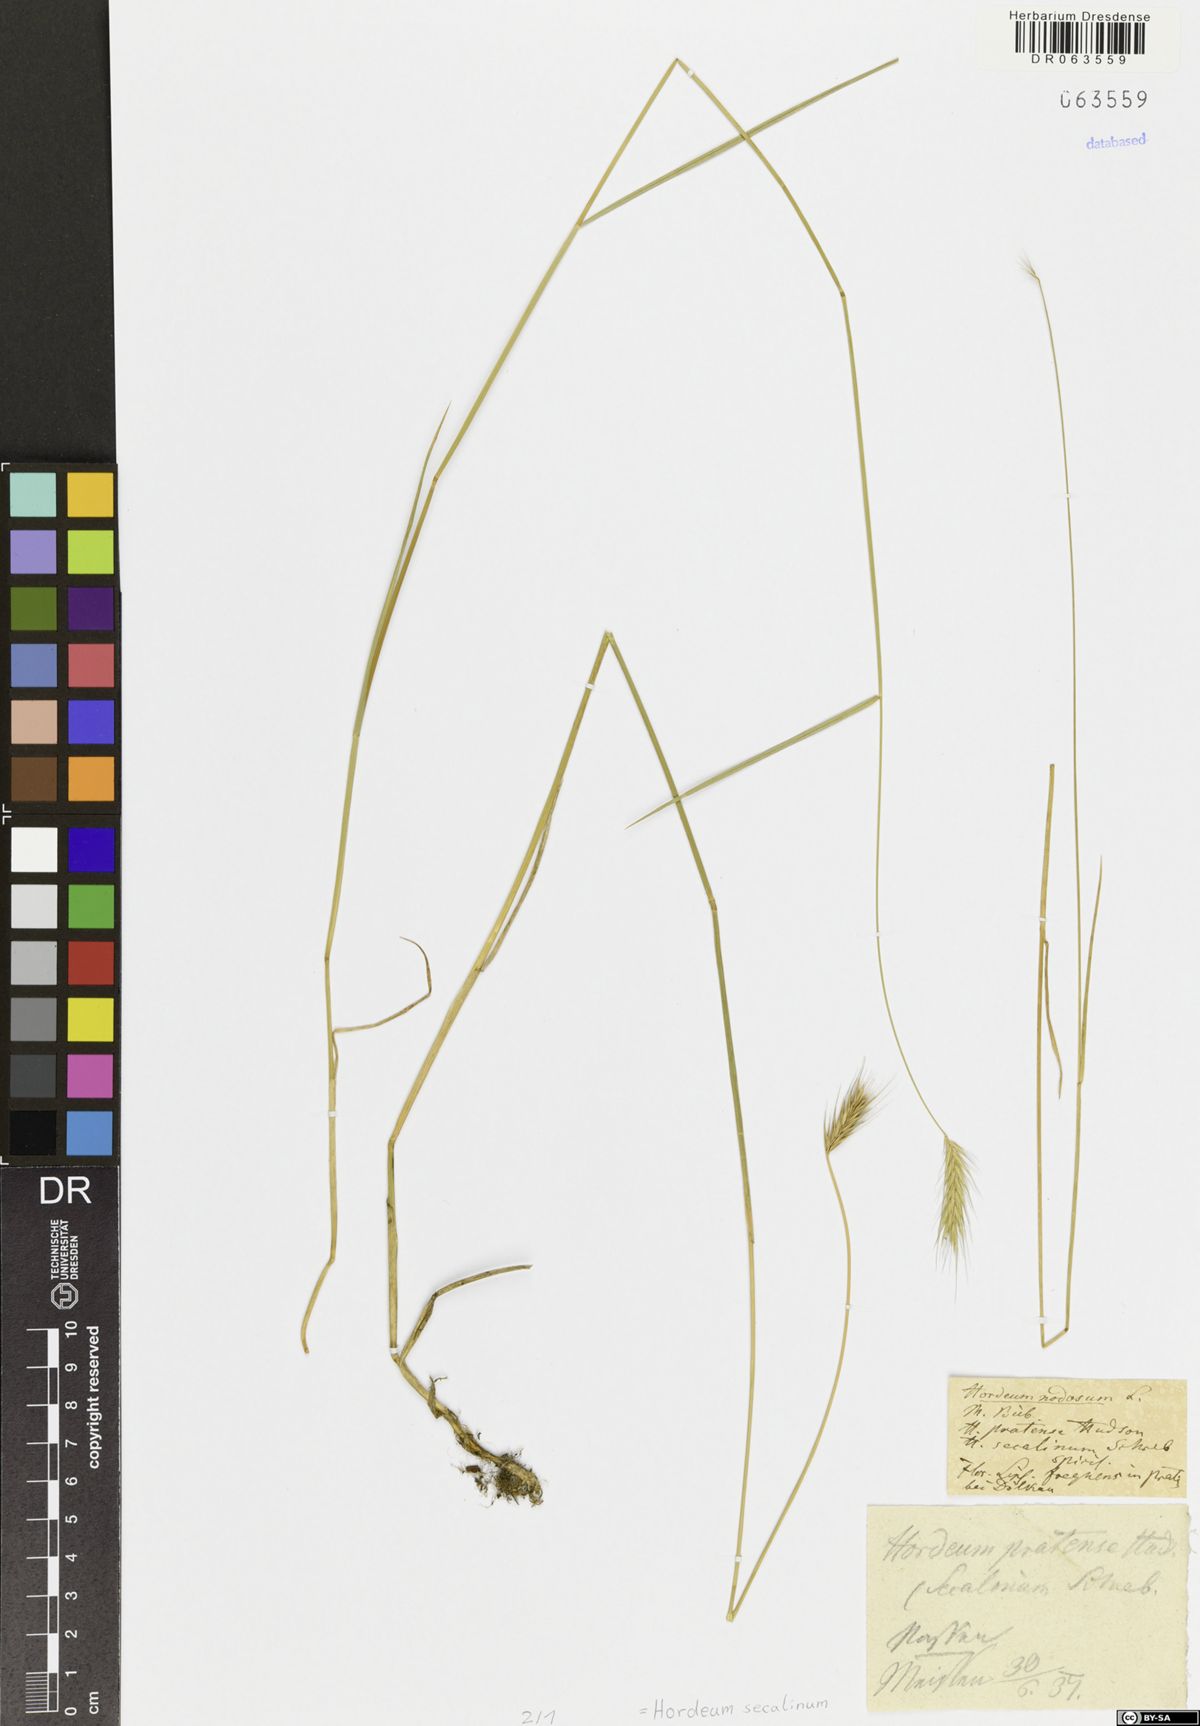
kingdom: Plantae
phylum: Tracheophyta
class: Liliopsida
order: Poales
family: Poaceae
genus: Hordeum
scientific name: Hordeum secalinum
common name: Meadow barley
